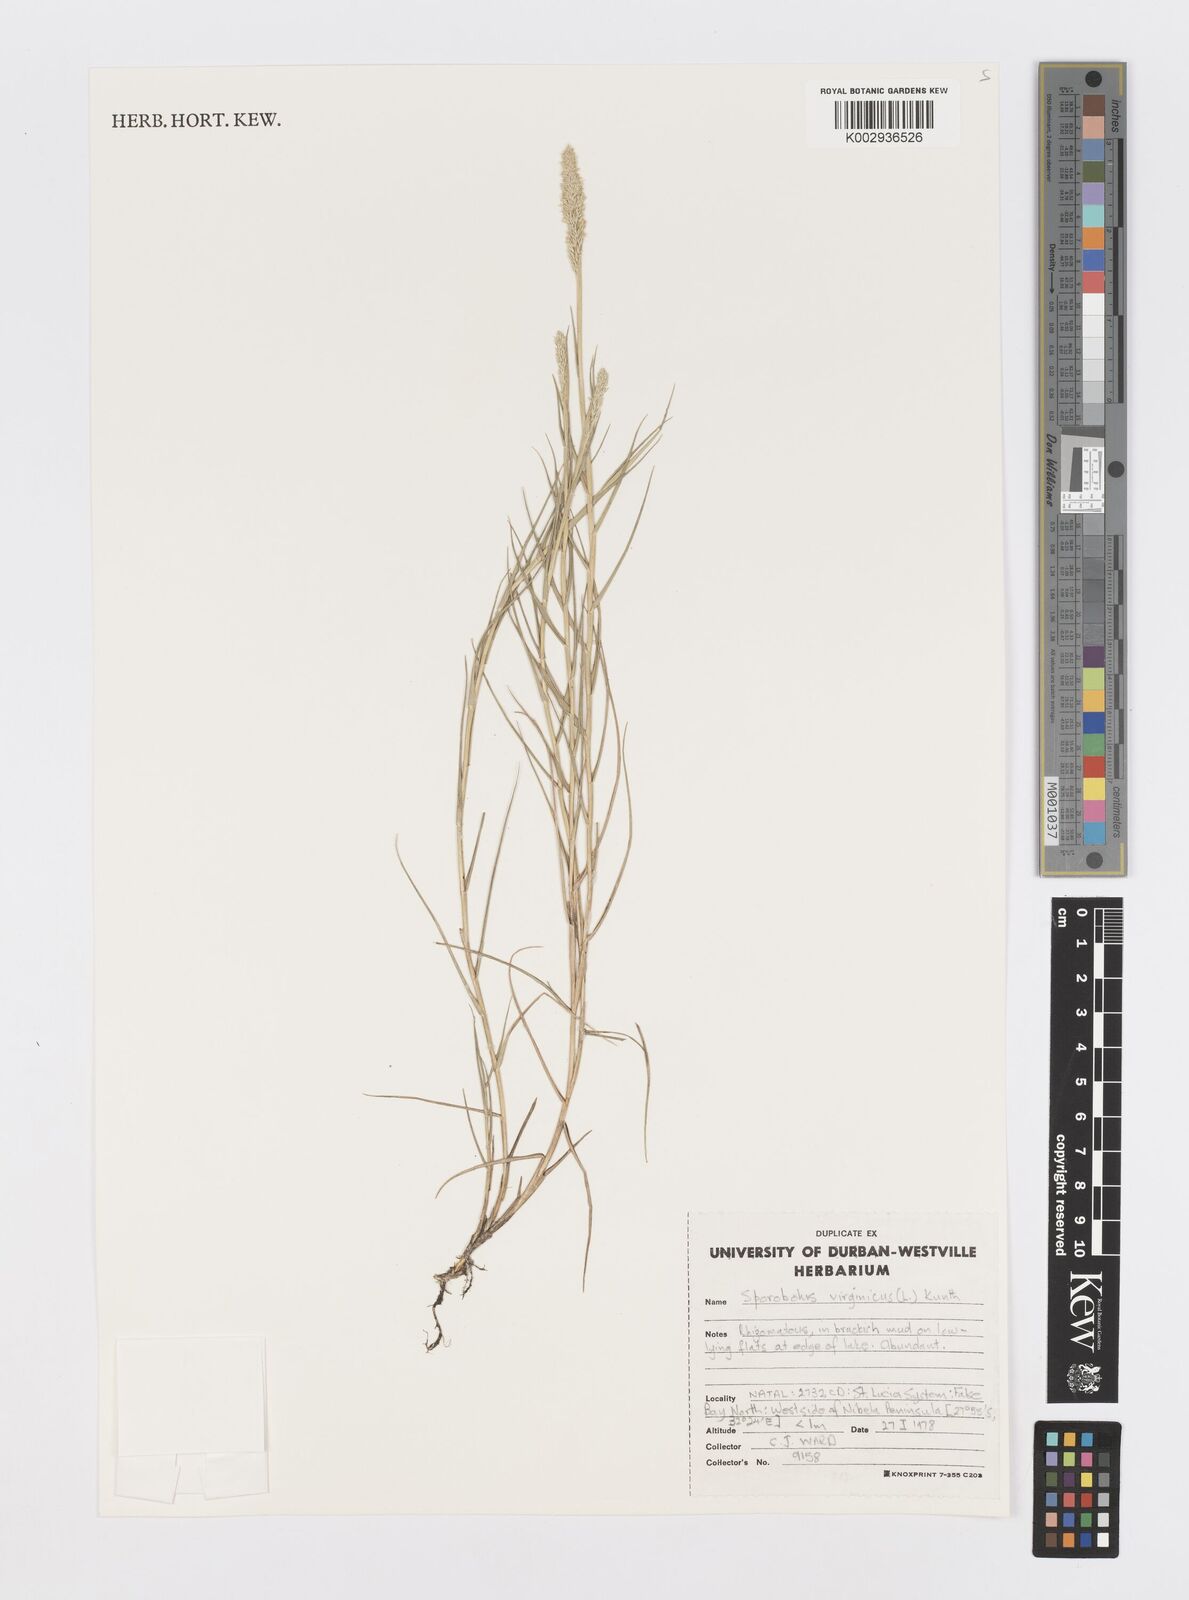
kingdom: Plantae
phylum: Tracheophyta
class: Liliopsida
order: Poales
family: Poaceae
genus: Sporobolus
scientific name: Sporobolus virginicus
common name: Beach dropseed
